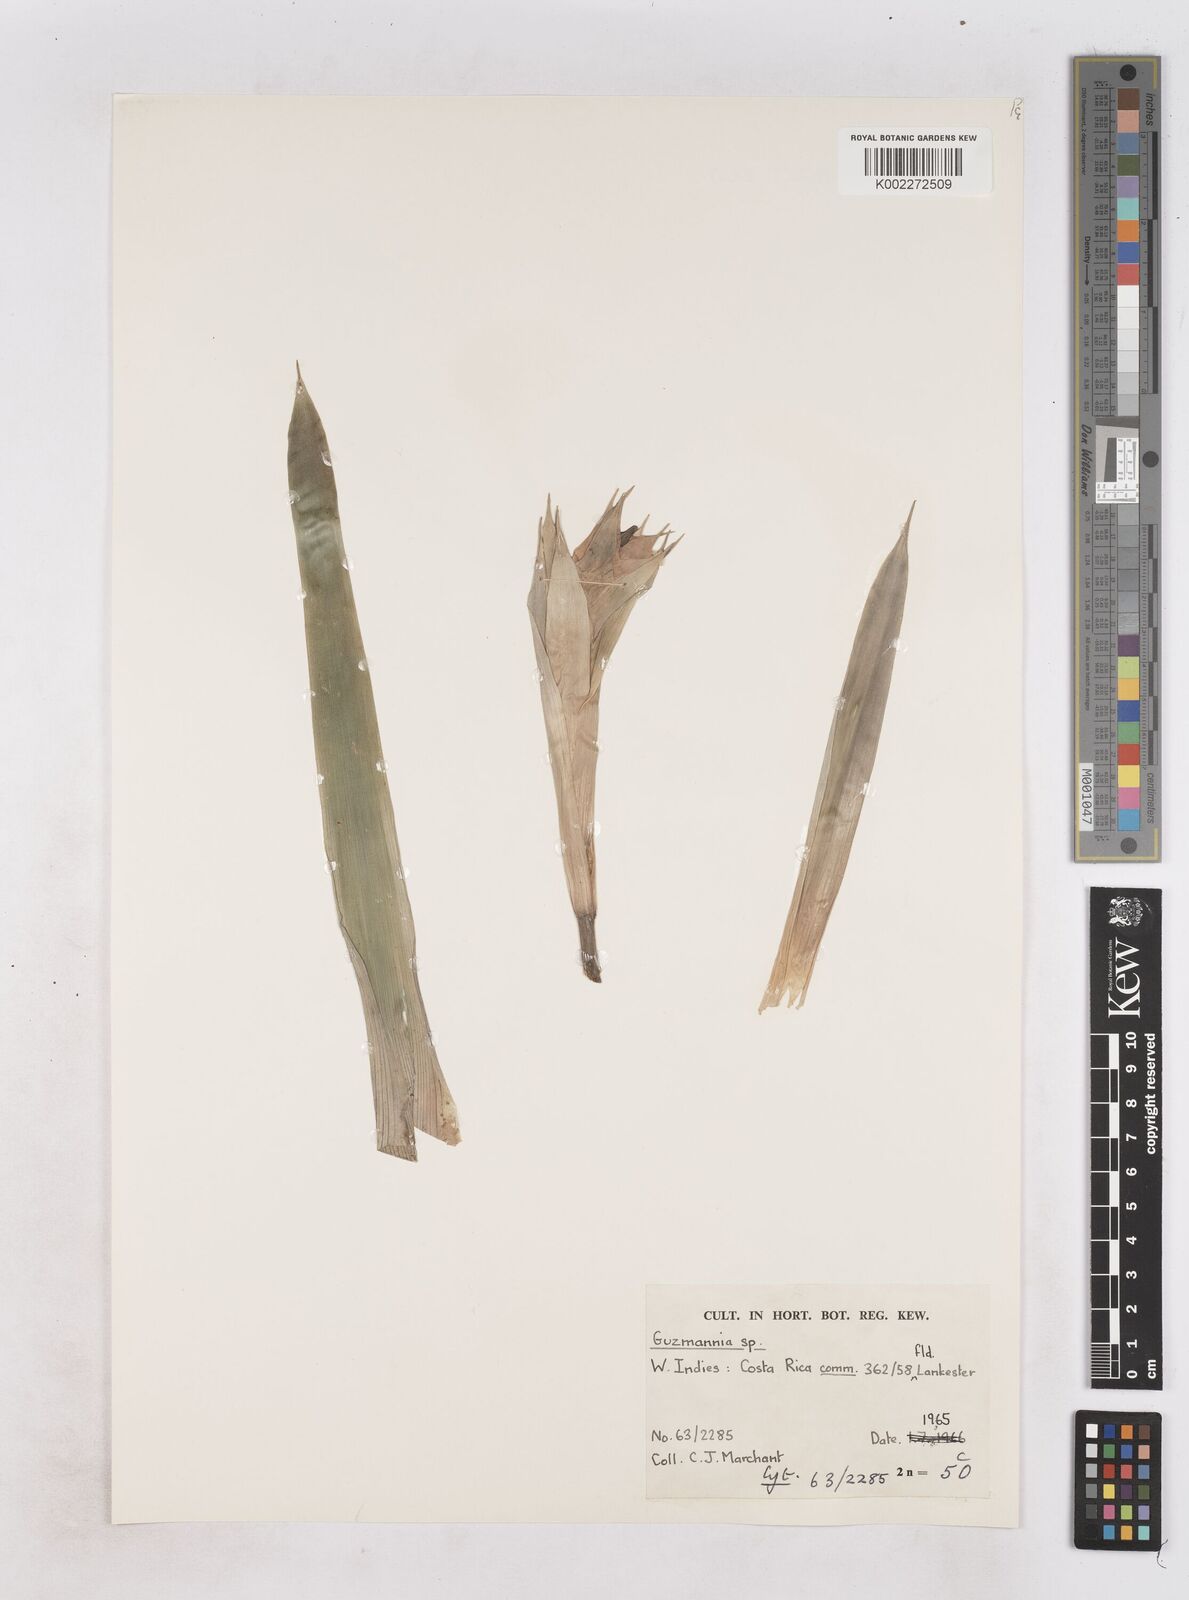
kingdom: Plantae
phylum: Tracheophyta
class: Liliopsida
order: Poales
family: Bromeliaceae
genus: Guzmania
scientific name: Guzmania
